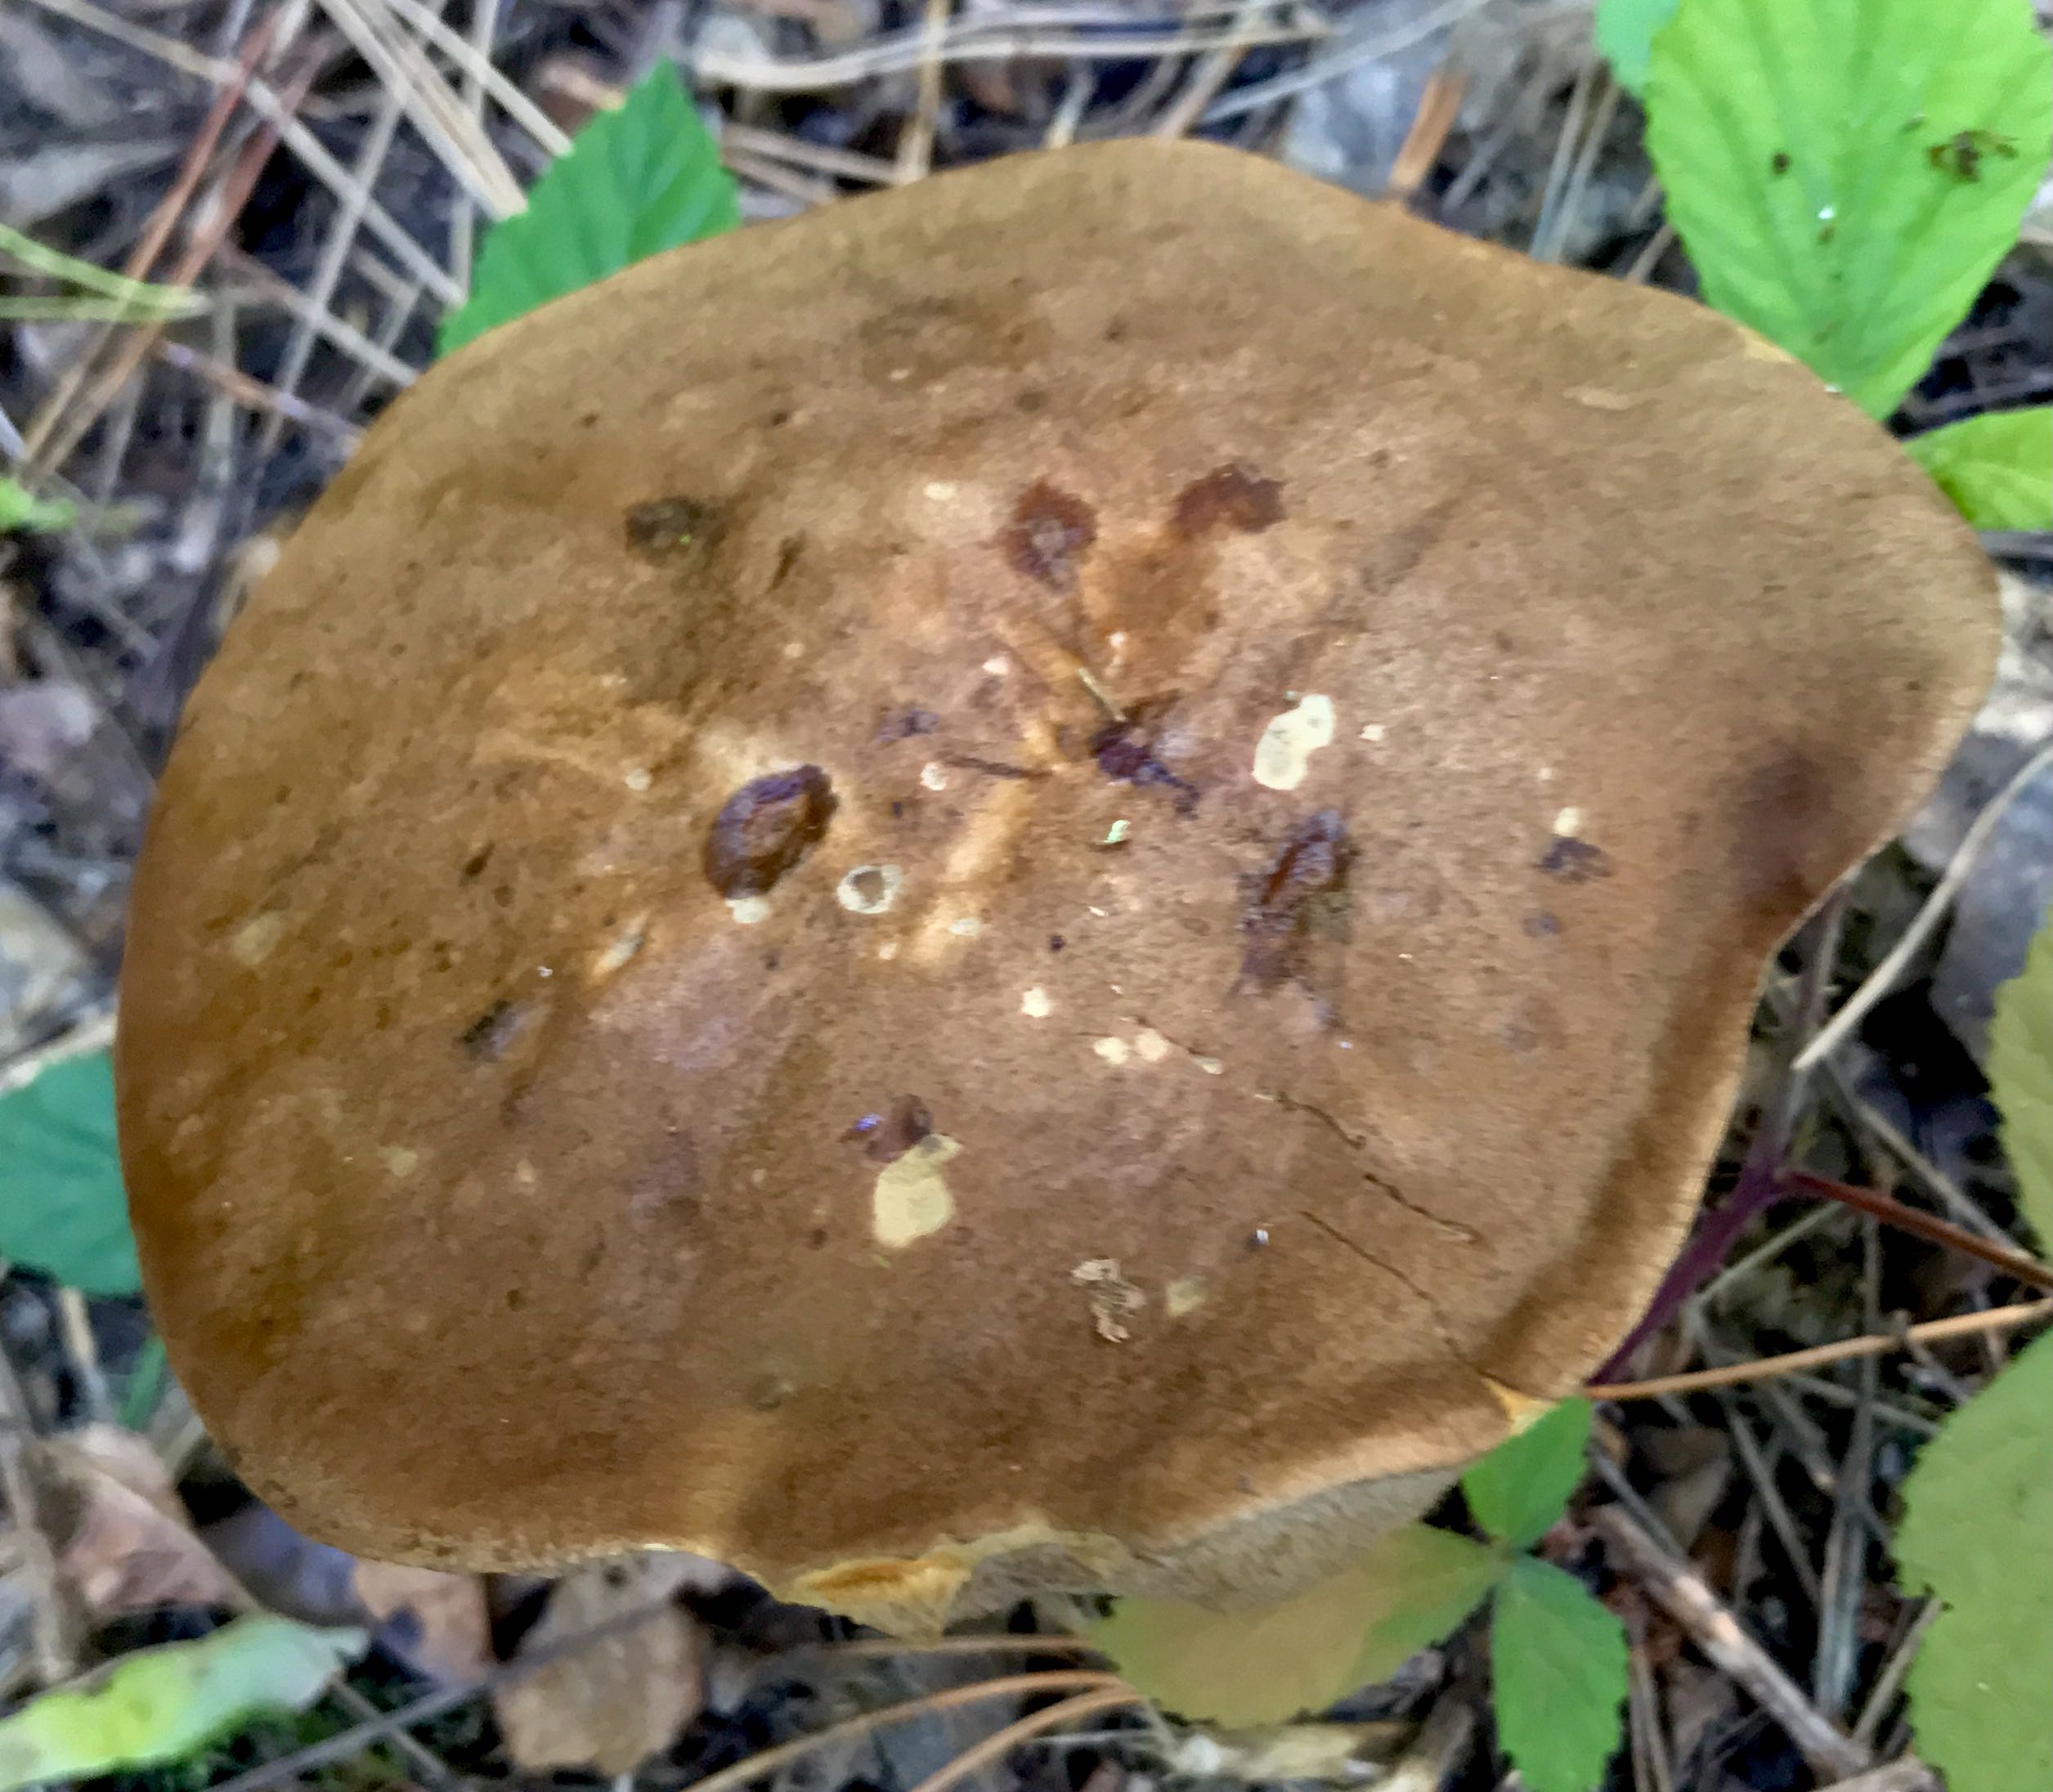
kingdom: Fungi
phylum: Basidiomycota
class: Agaricomycetes
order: Boletales
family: Boletaceae
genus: Leccinum
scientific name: Leccinum scabrum
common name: brun skælrørhat
